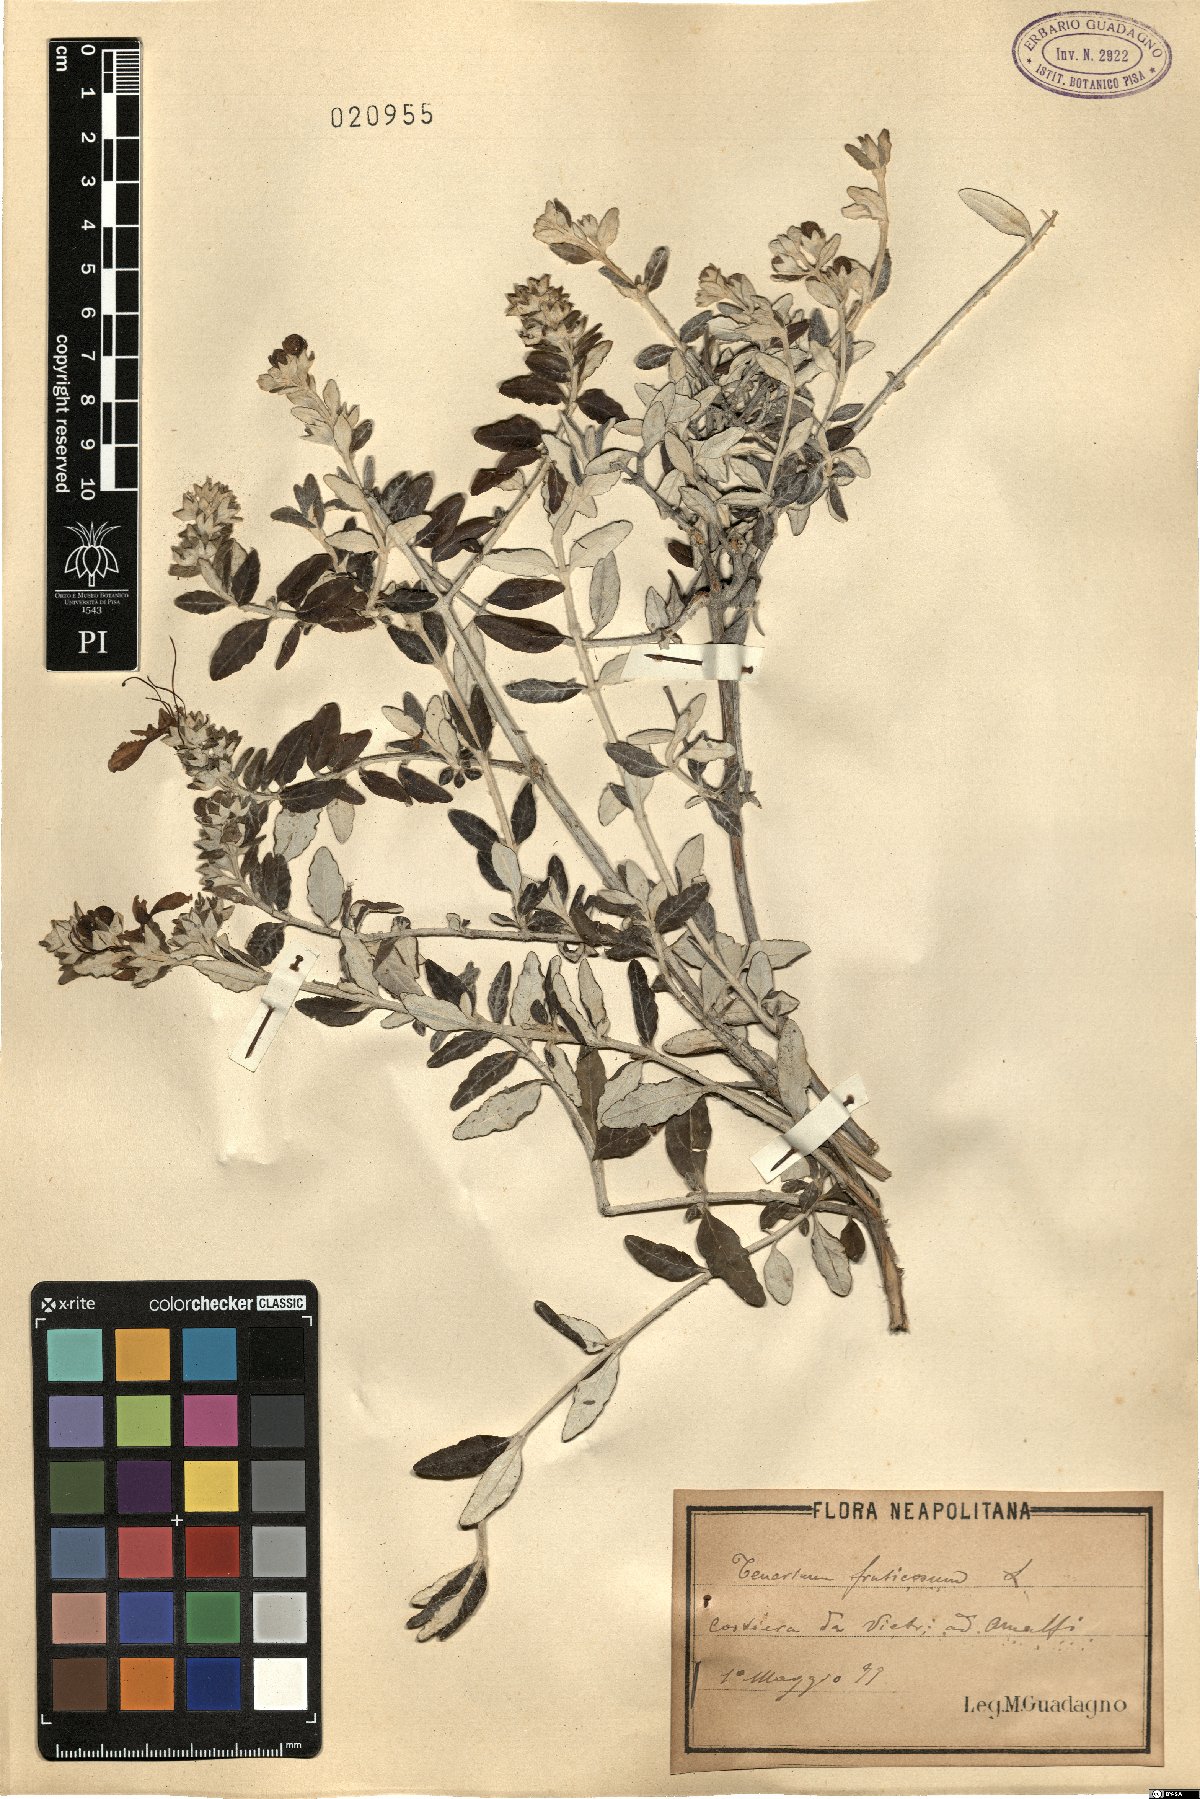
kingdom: Plantae
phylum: Tracheophyta
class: Magnoliopsida
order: Lamiales
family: Lamiaceae
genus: Teucrium
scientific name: Teucrium fruticans
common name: Shrubby germander
